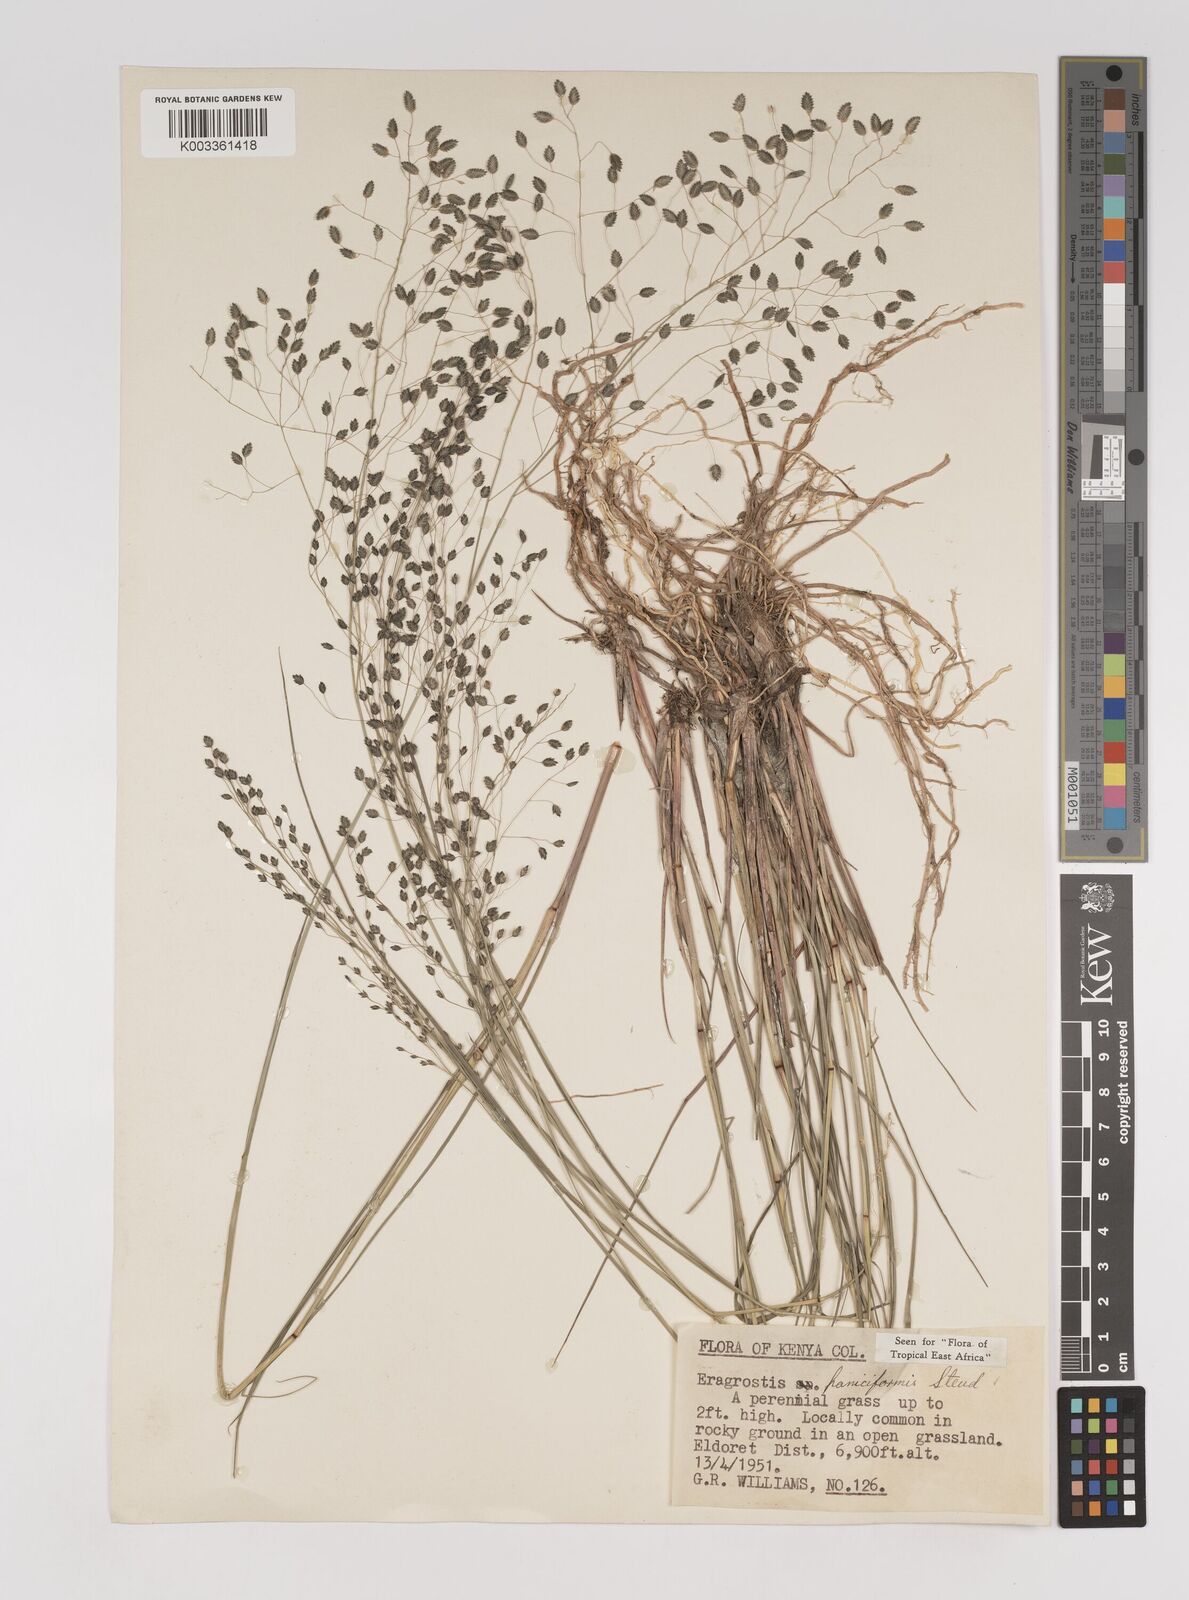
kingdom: Plantae
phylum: Tracheophyta
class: Liliopsida
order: Poales
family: Poaceae
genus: Eragrostis
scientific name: Eragrostis paniciformis
